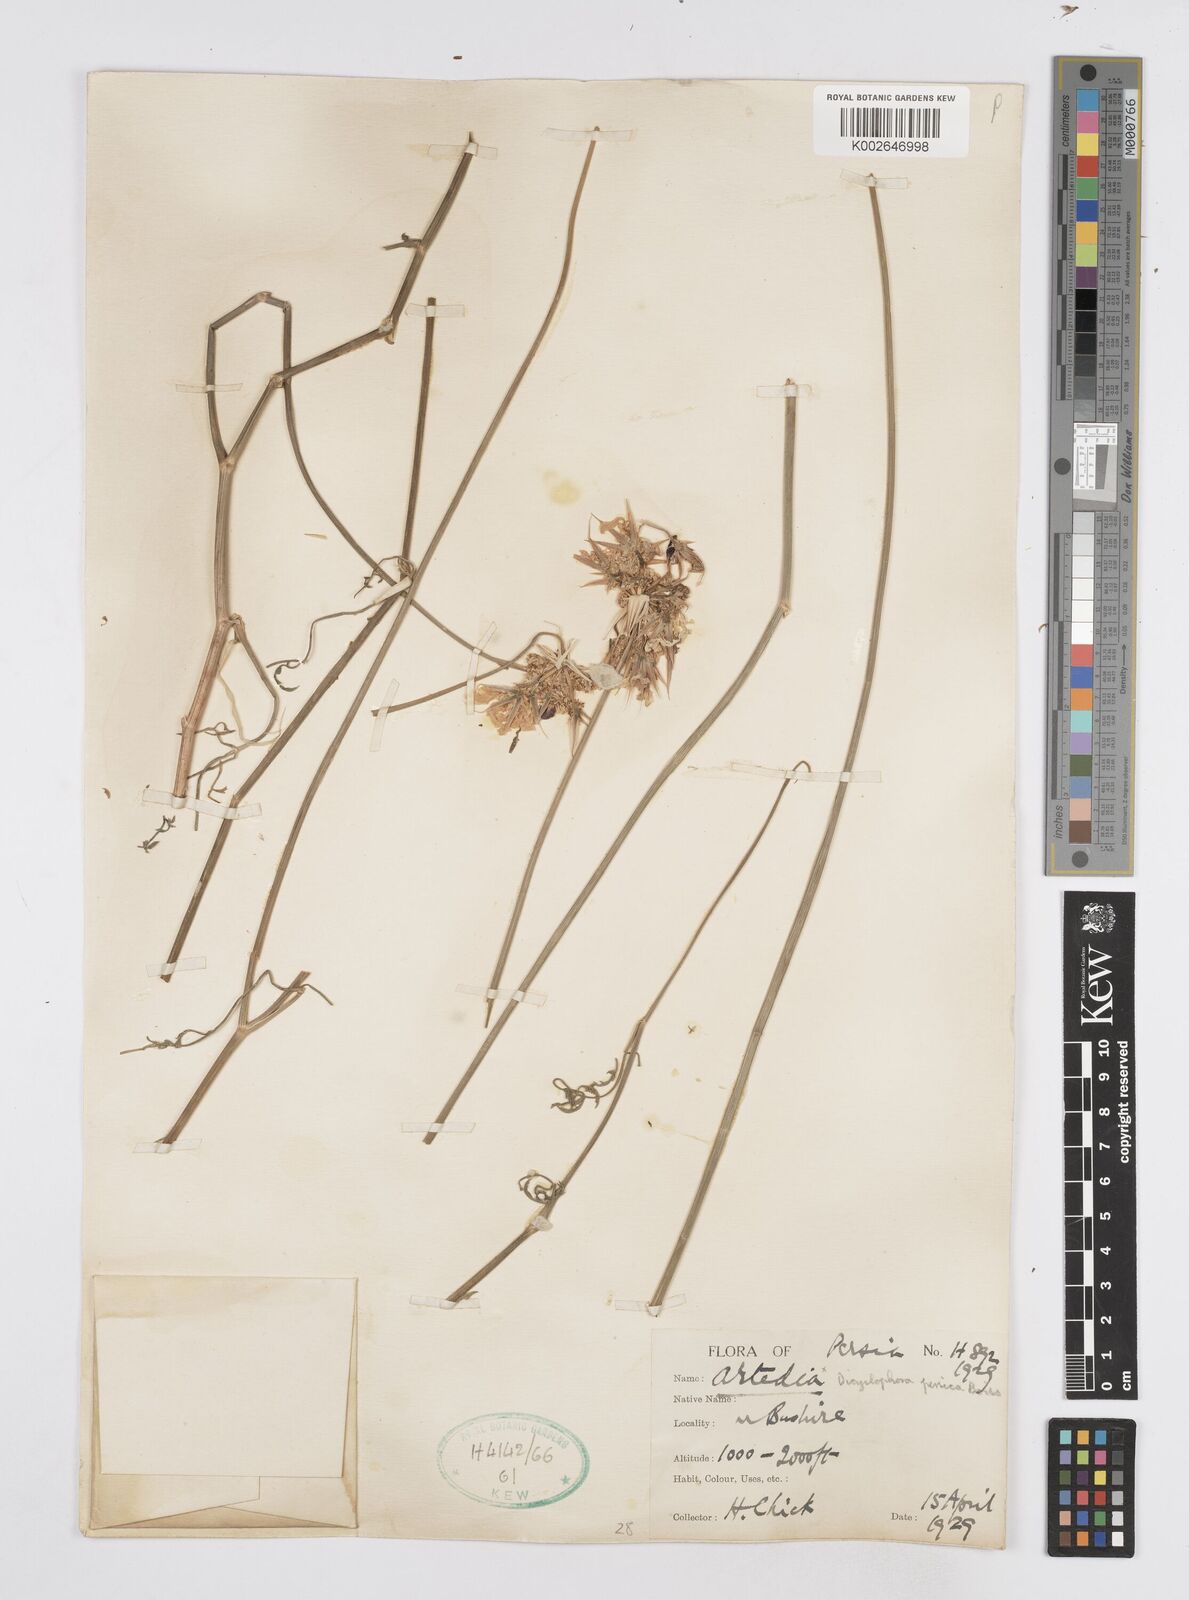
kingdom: Plantae
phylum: Tracheophyta
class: Magnoliopsida
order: Apiales
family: Apiaceae
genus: Dicyclophora
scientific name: Dicyclophora persica
